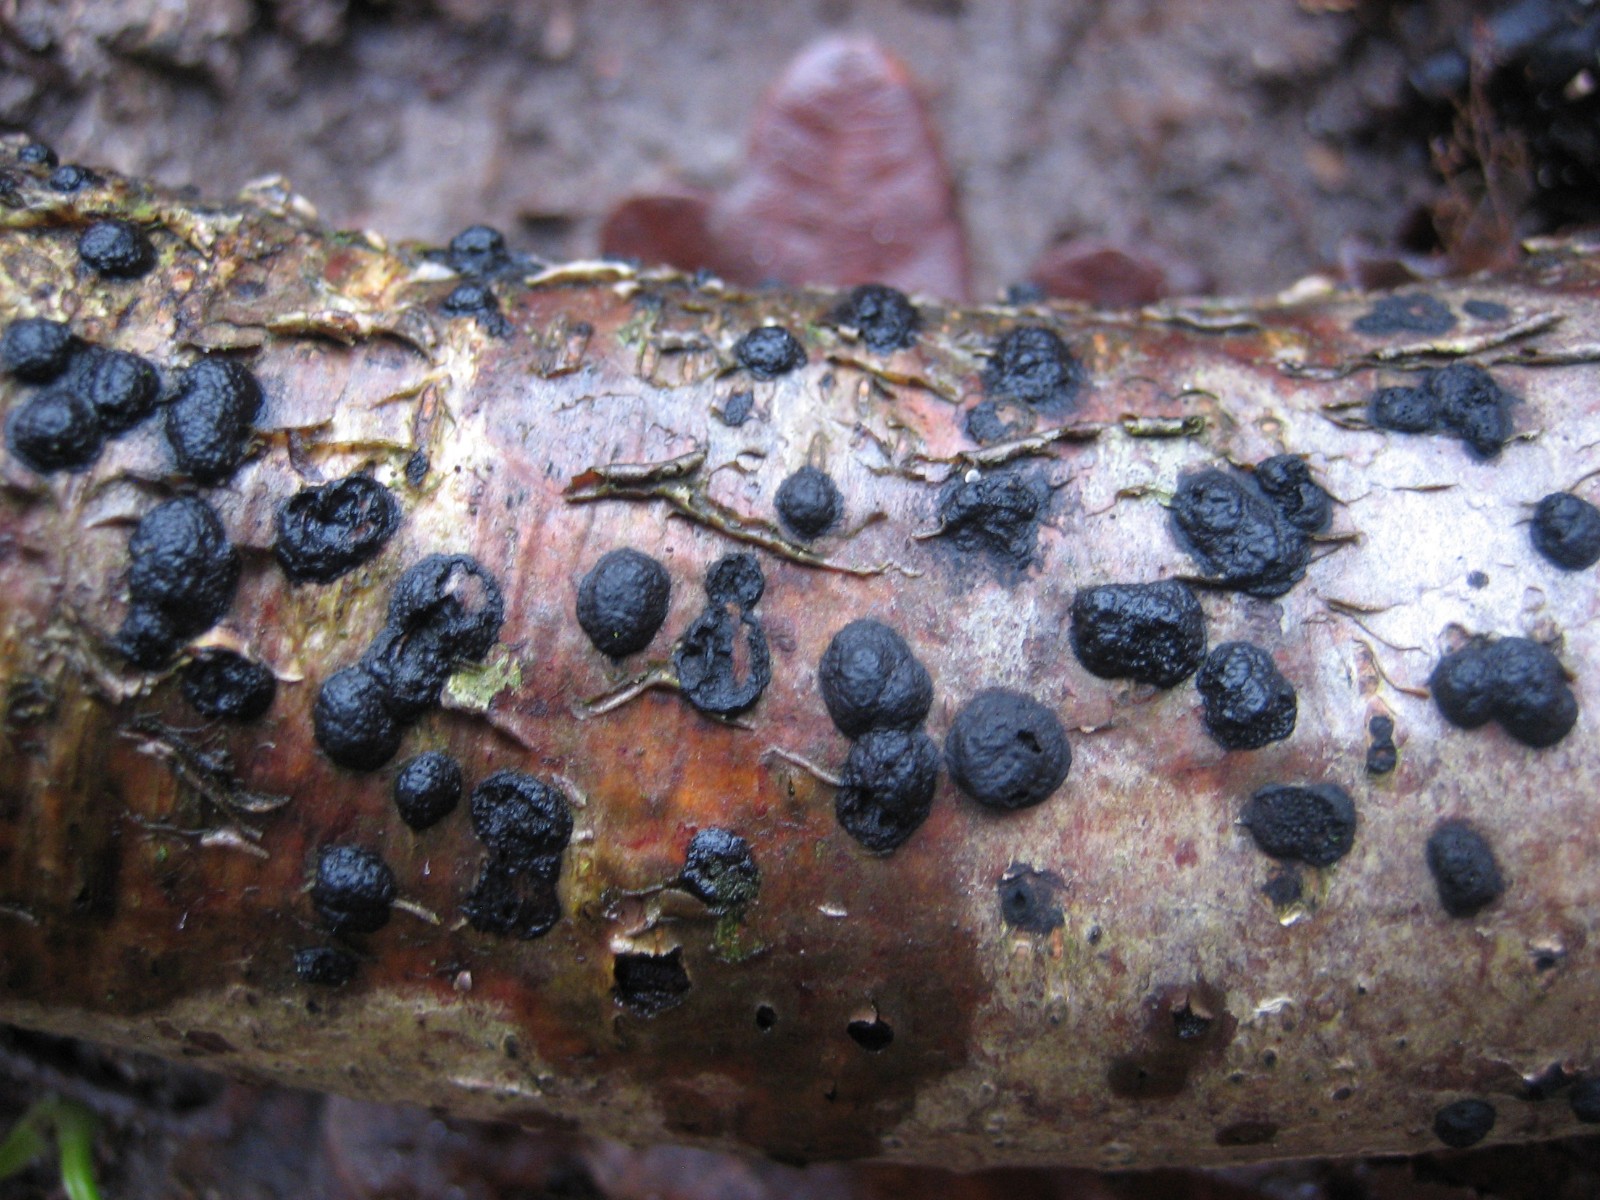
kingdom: Fungi
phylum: Ascomycota
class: Sordariomycetes
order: Xylariales
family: Hypoxylaceae
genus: Hypoxylon
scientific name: Hypoxylon fuscum
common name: kegleformet kulbær
